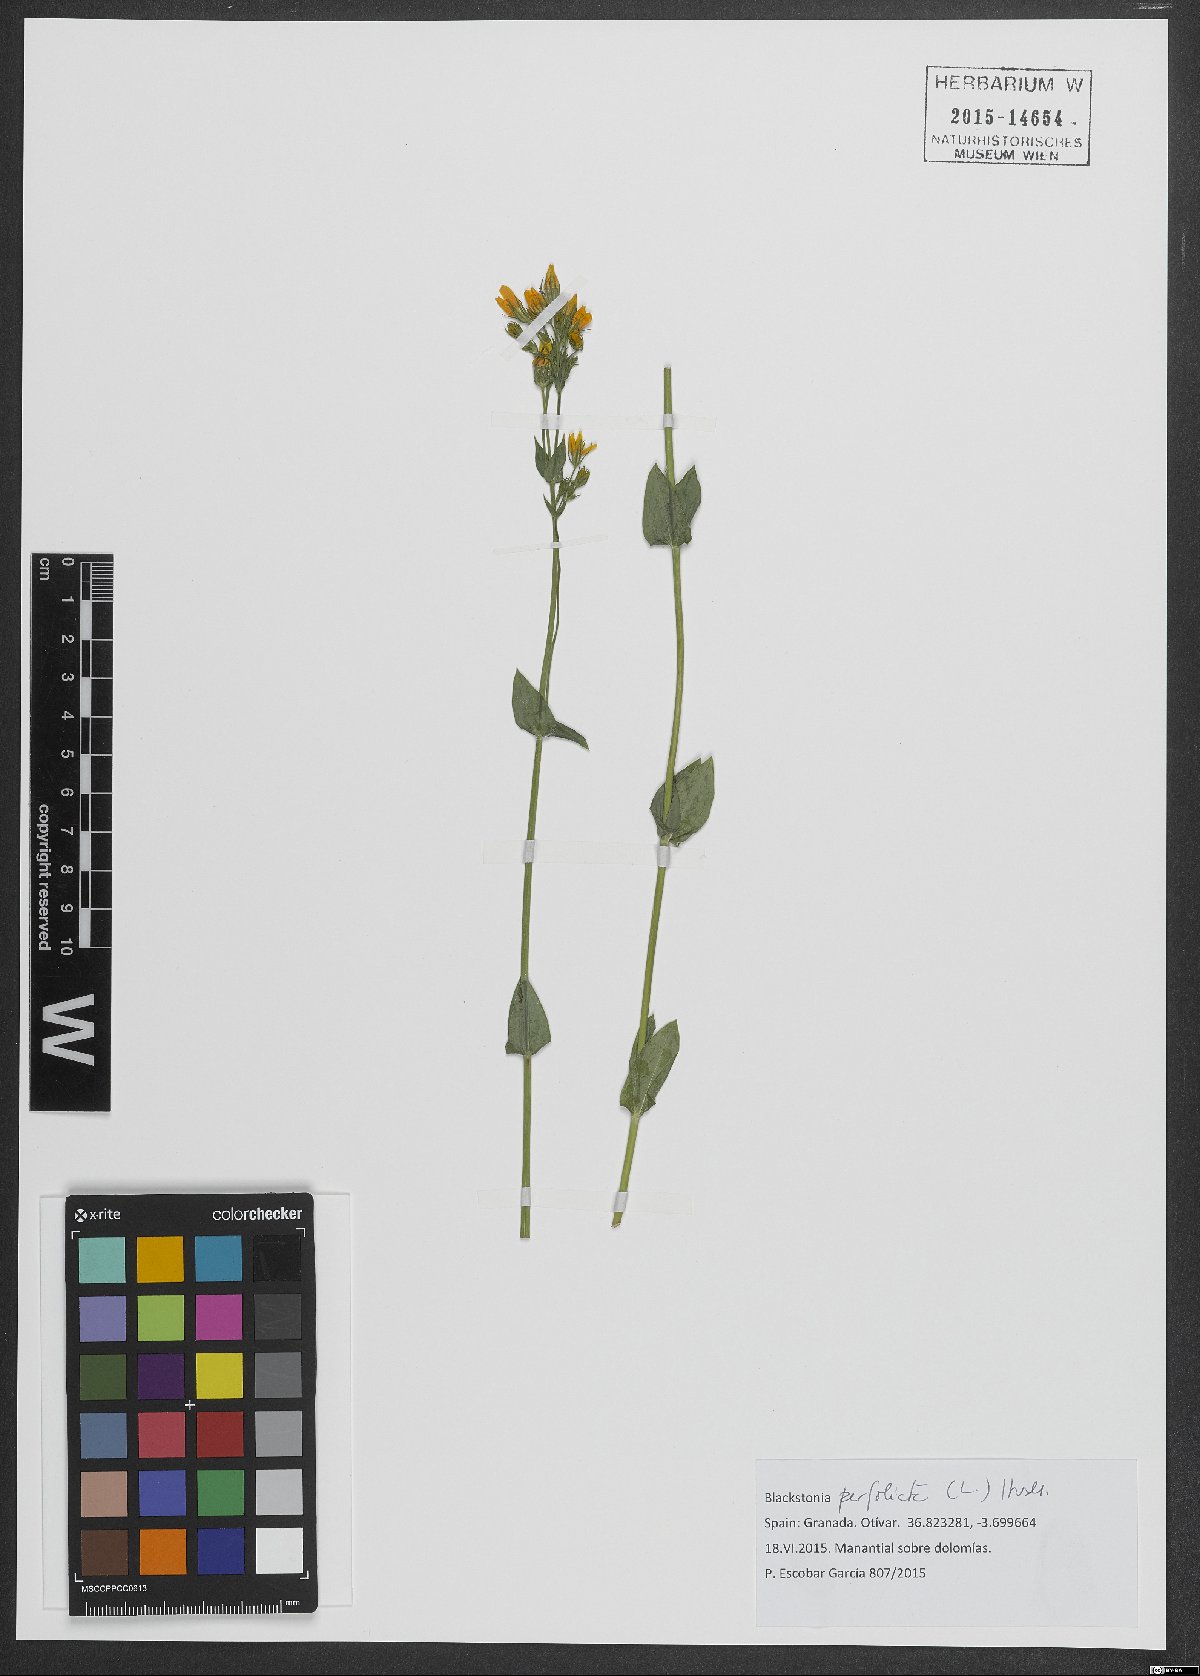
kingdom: Plantae
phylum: Tracheophyta
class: Magnoliopsida
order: Gentianales
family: Gentianaceae
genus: Blackstonia
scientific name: Blackstonia perfoliata
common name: Yellow-wort
